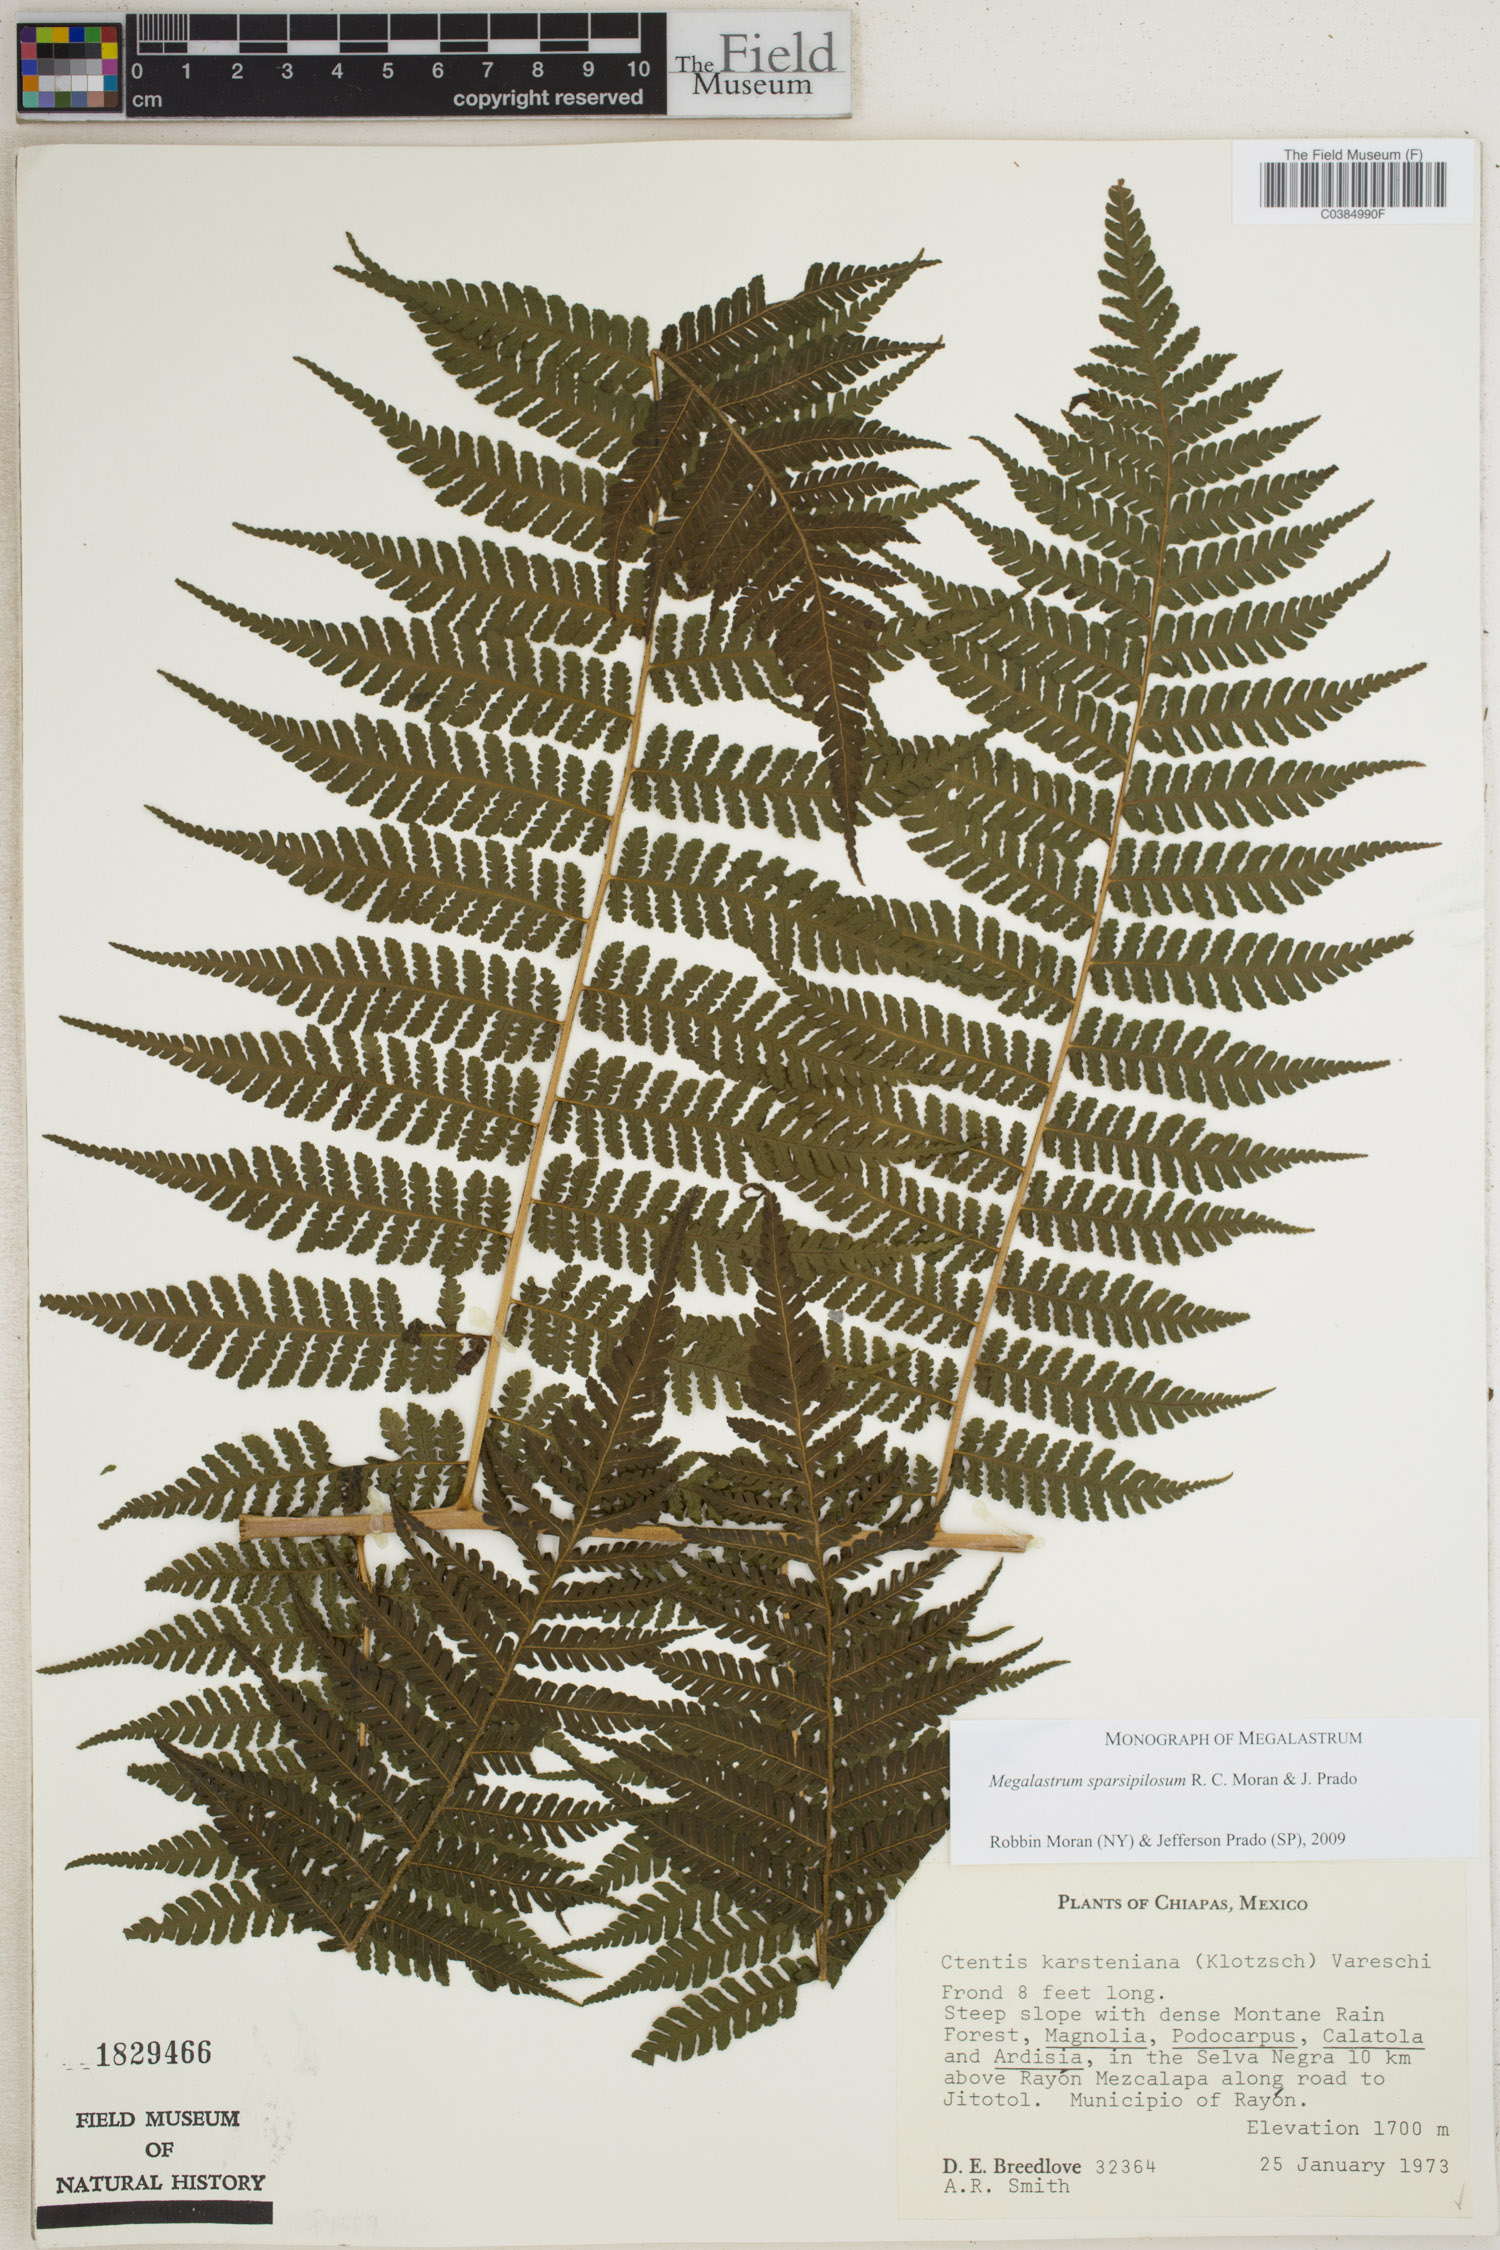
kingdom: Plantae
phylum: Tracheophyta
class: Polypodiopsida
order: Polypodiales
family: Dryopteridaceae
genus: Megalastrum
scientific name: Megalastrum sparsipilosum
